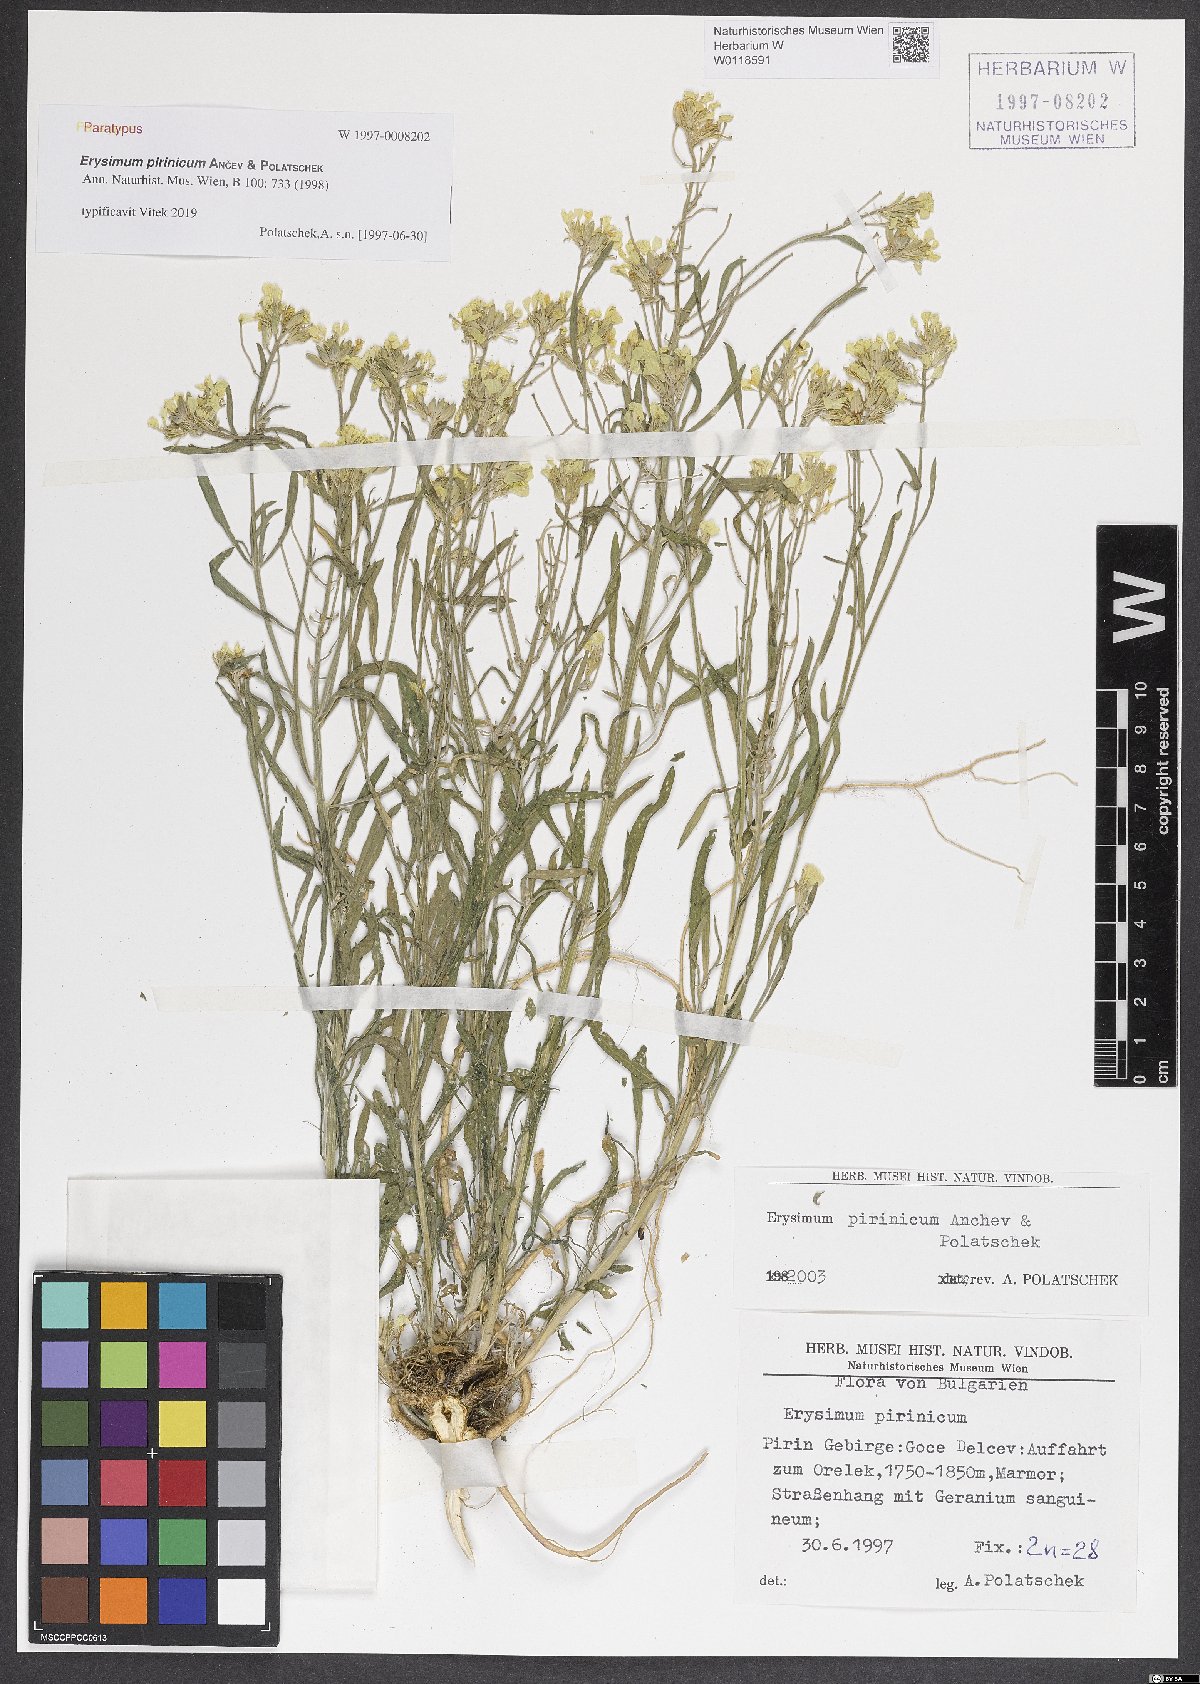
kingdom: Plantae
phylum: Tracheophyta
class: Magnoliopsida
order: Brassicales
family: Brassicaceae
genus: Erysimum
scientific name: Erysimum pirinicum
